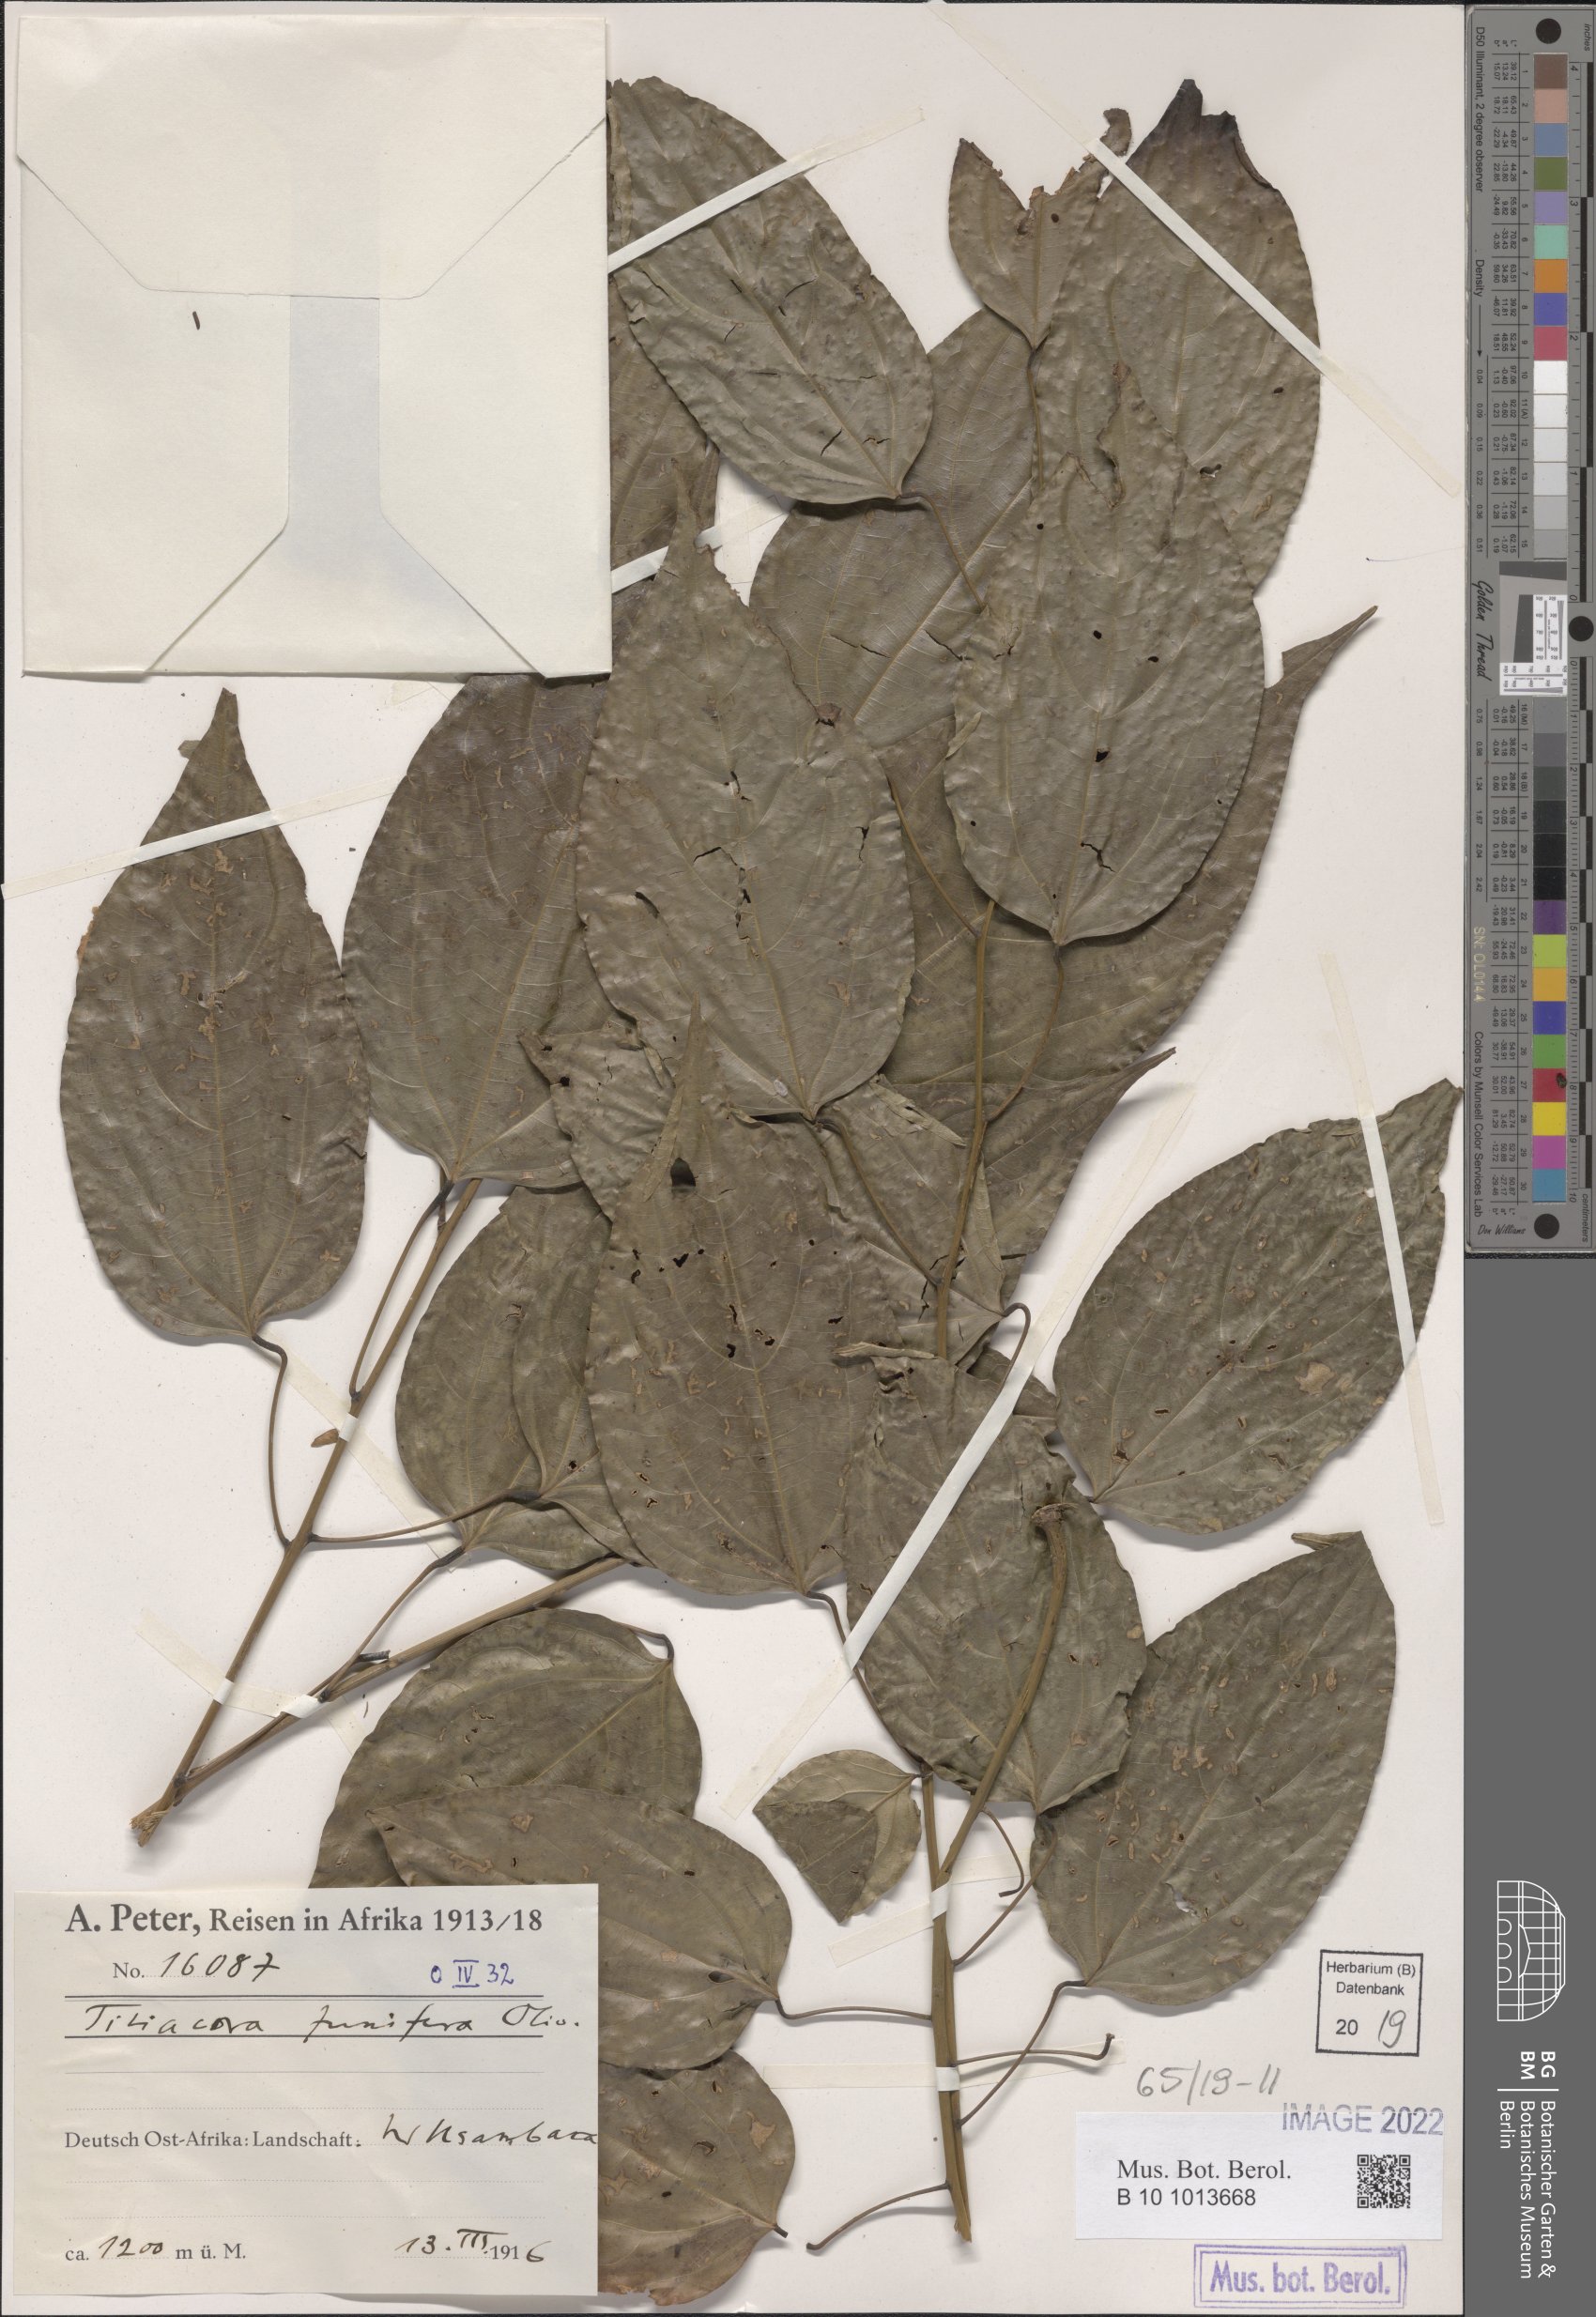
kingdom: Plantae
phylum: Tracheophyta
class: Magnoliopsida
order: Ranunculales
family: Menispermaceae
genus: Tiliacora
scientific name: Tiliacora funifera
